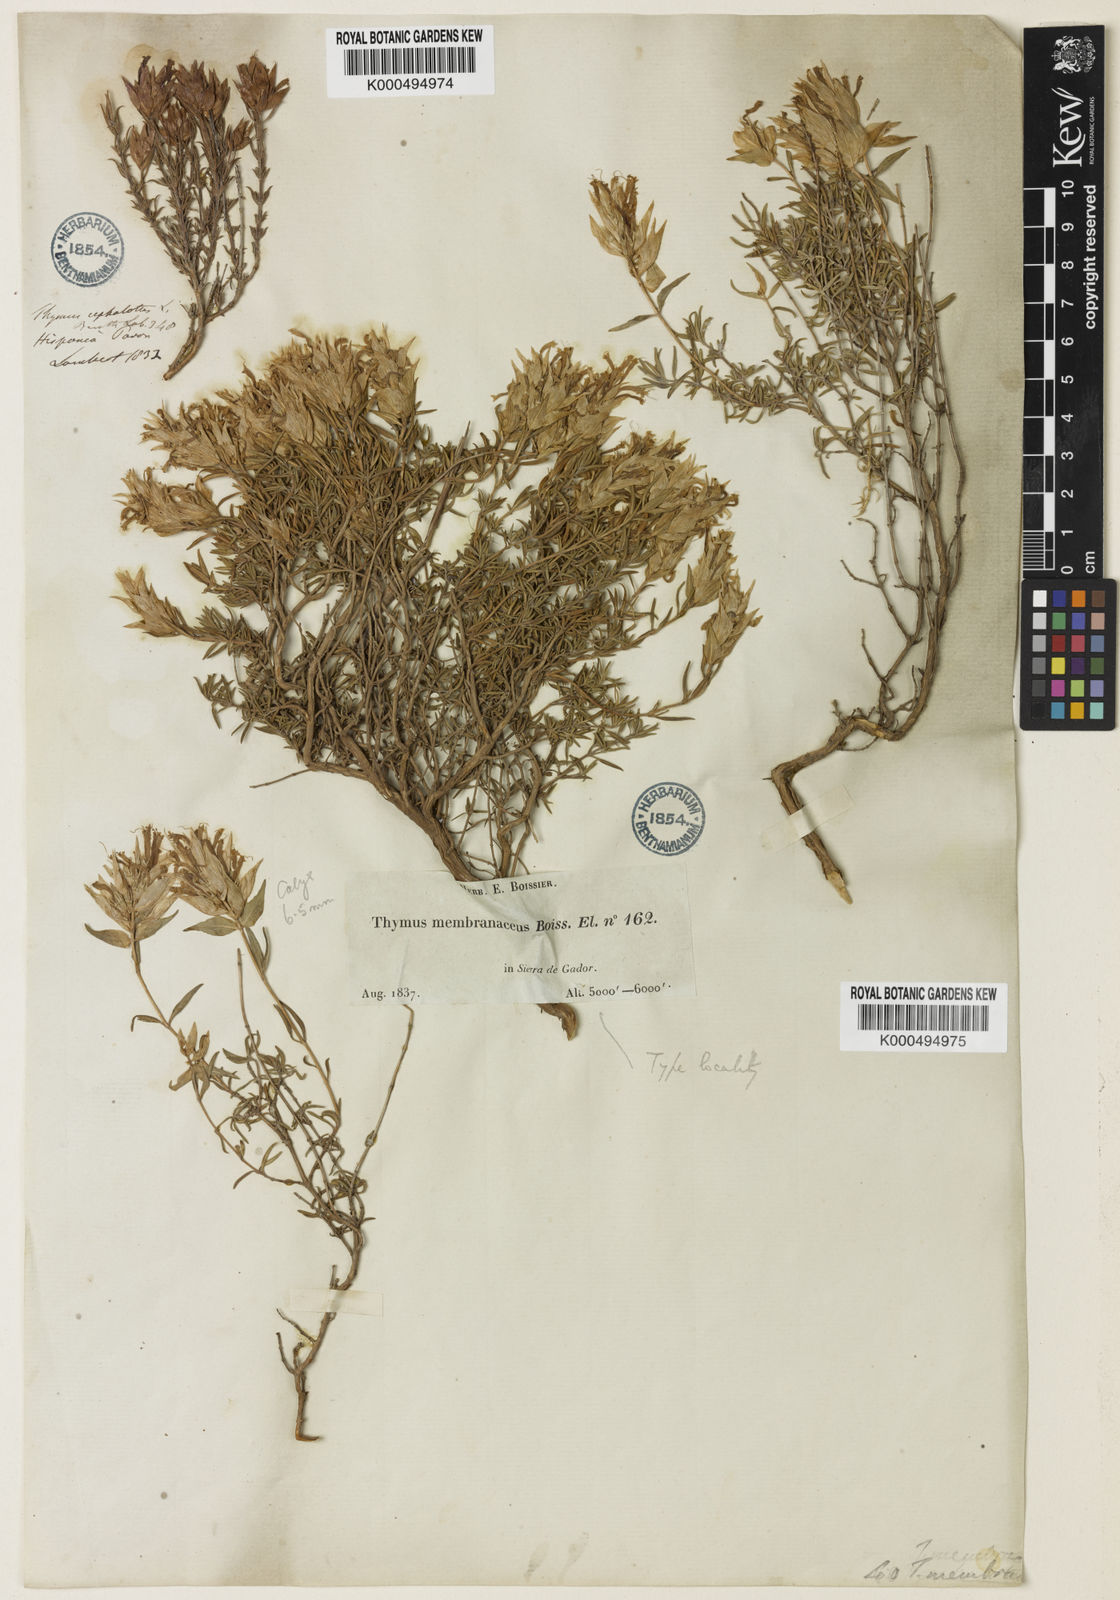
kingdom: Plantae
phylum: Tracheophyta
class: Magnoliopsida
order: Lamiales
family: Lamiaceae
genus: Thymus
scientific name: Thymus membranaceus
